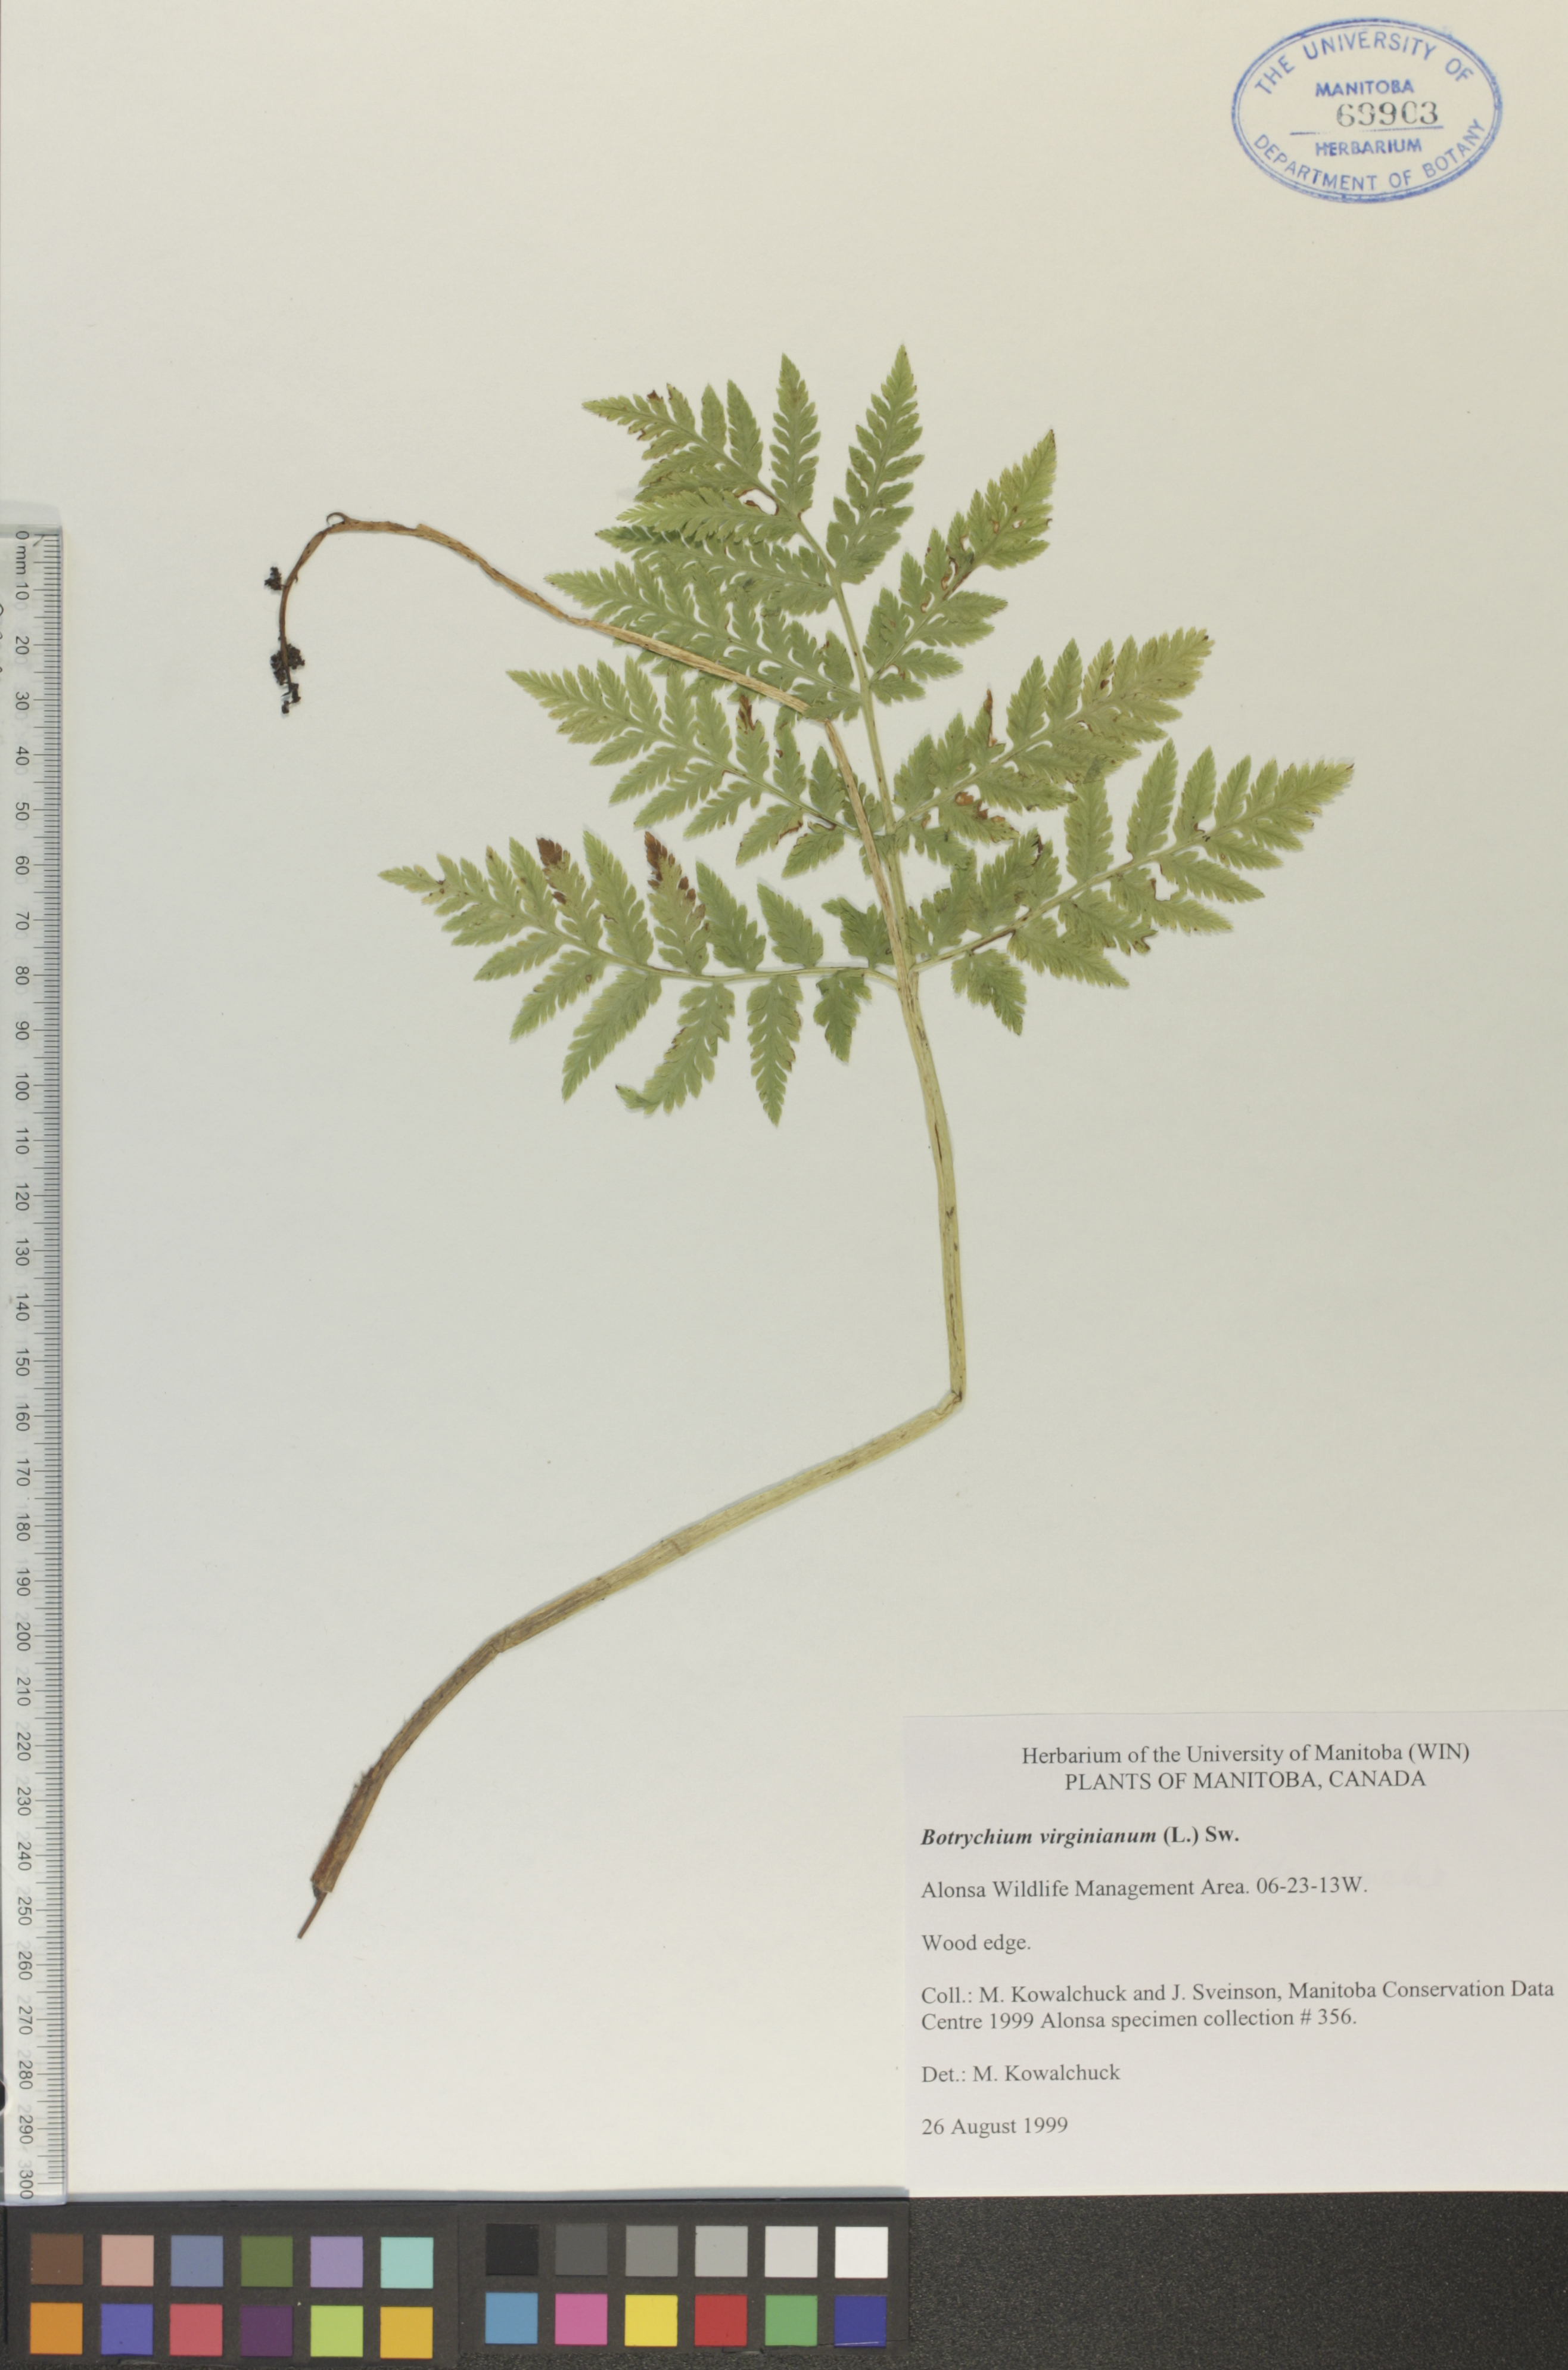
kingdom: Plantae
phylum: Tracheophyta
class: Polypodiopsida
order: Ophioglossales
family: Ophioglossaceae
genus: Botrypus
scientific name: Botrypus virginianus
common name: Common grapefern
